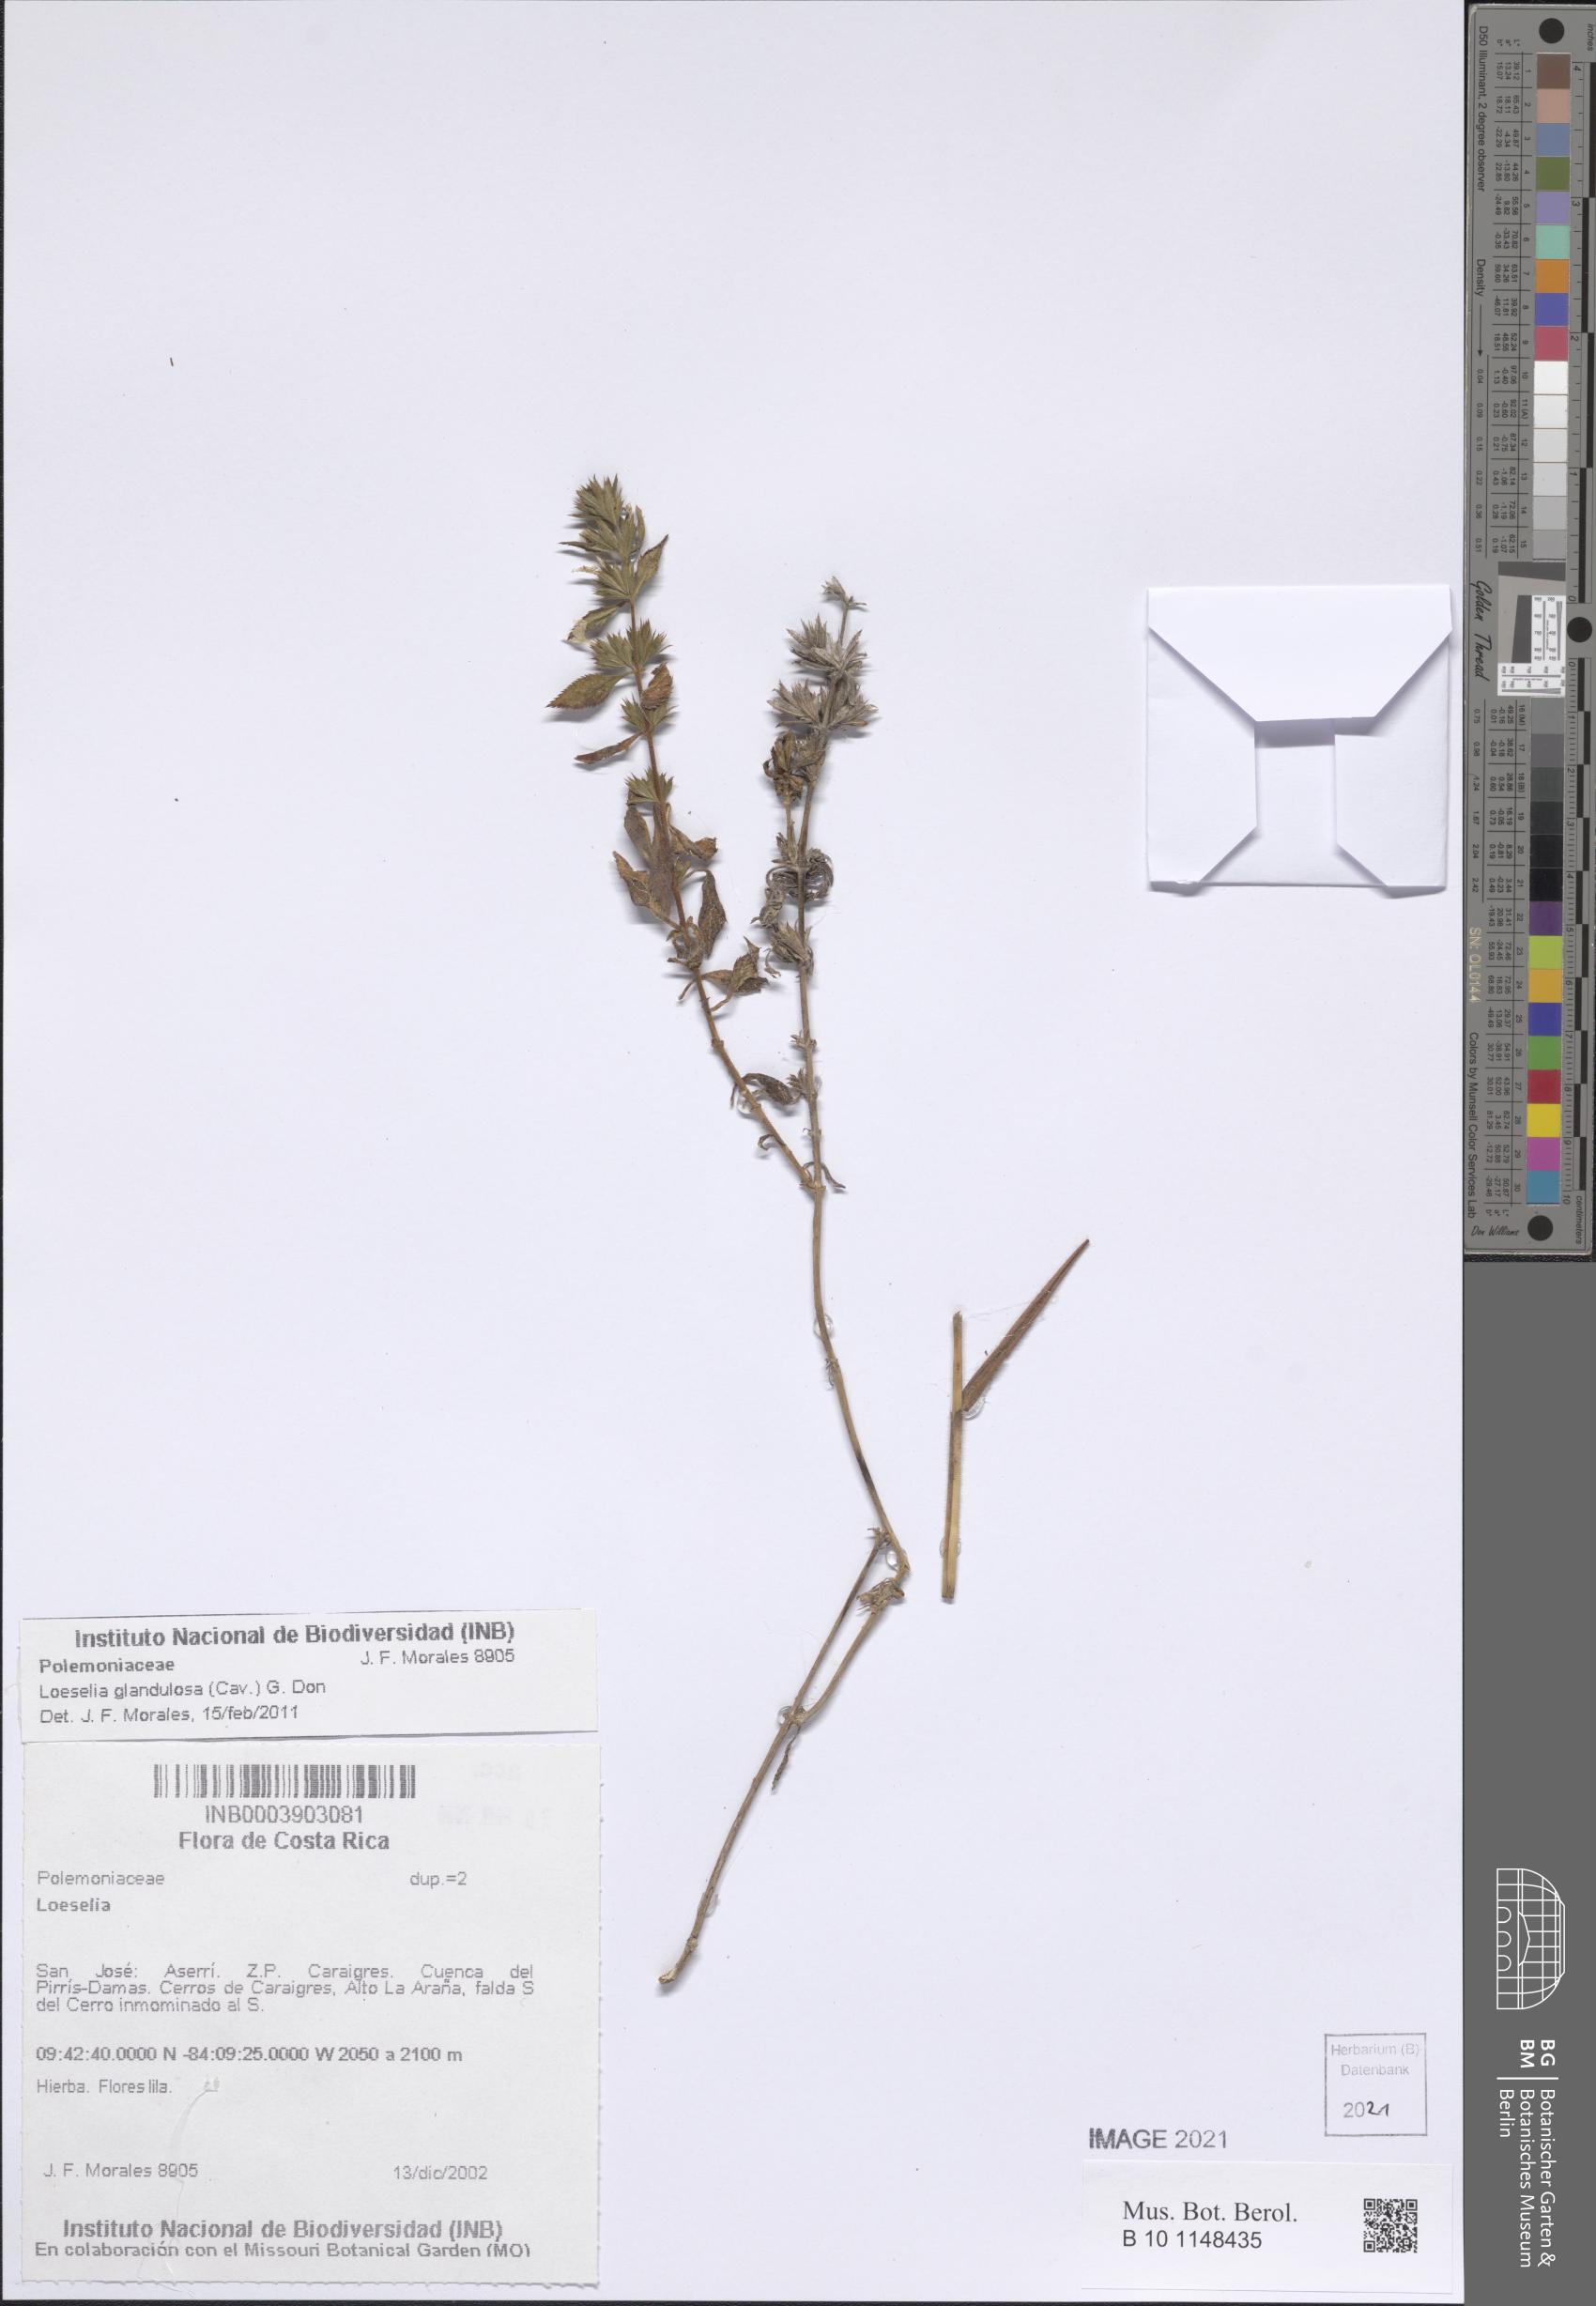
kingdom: Plantae
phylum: Tracheophyta
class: Magnoliopsida
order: Ericales
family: Polemoniaceae
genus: Loeselia
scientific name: Loeselia glandulosa
